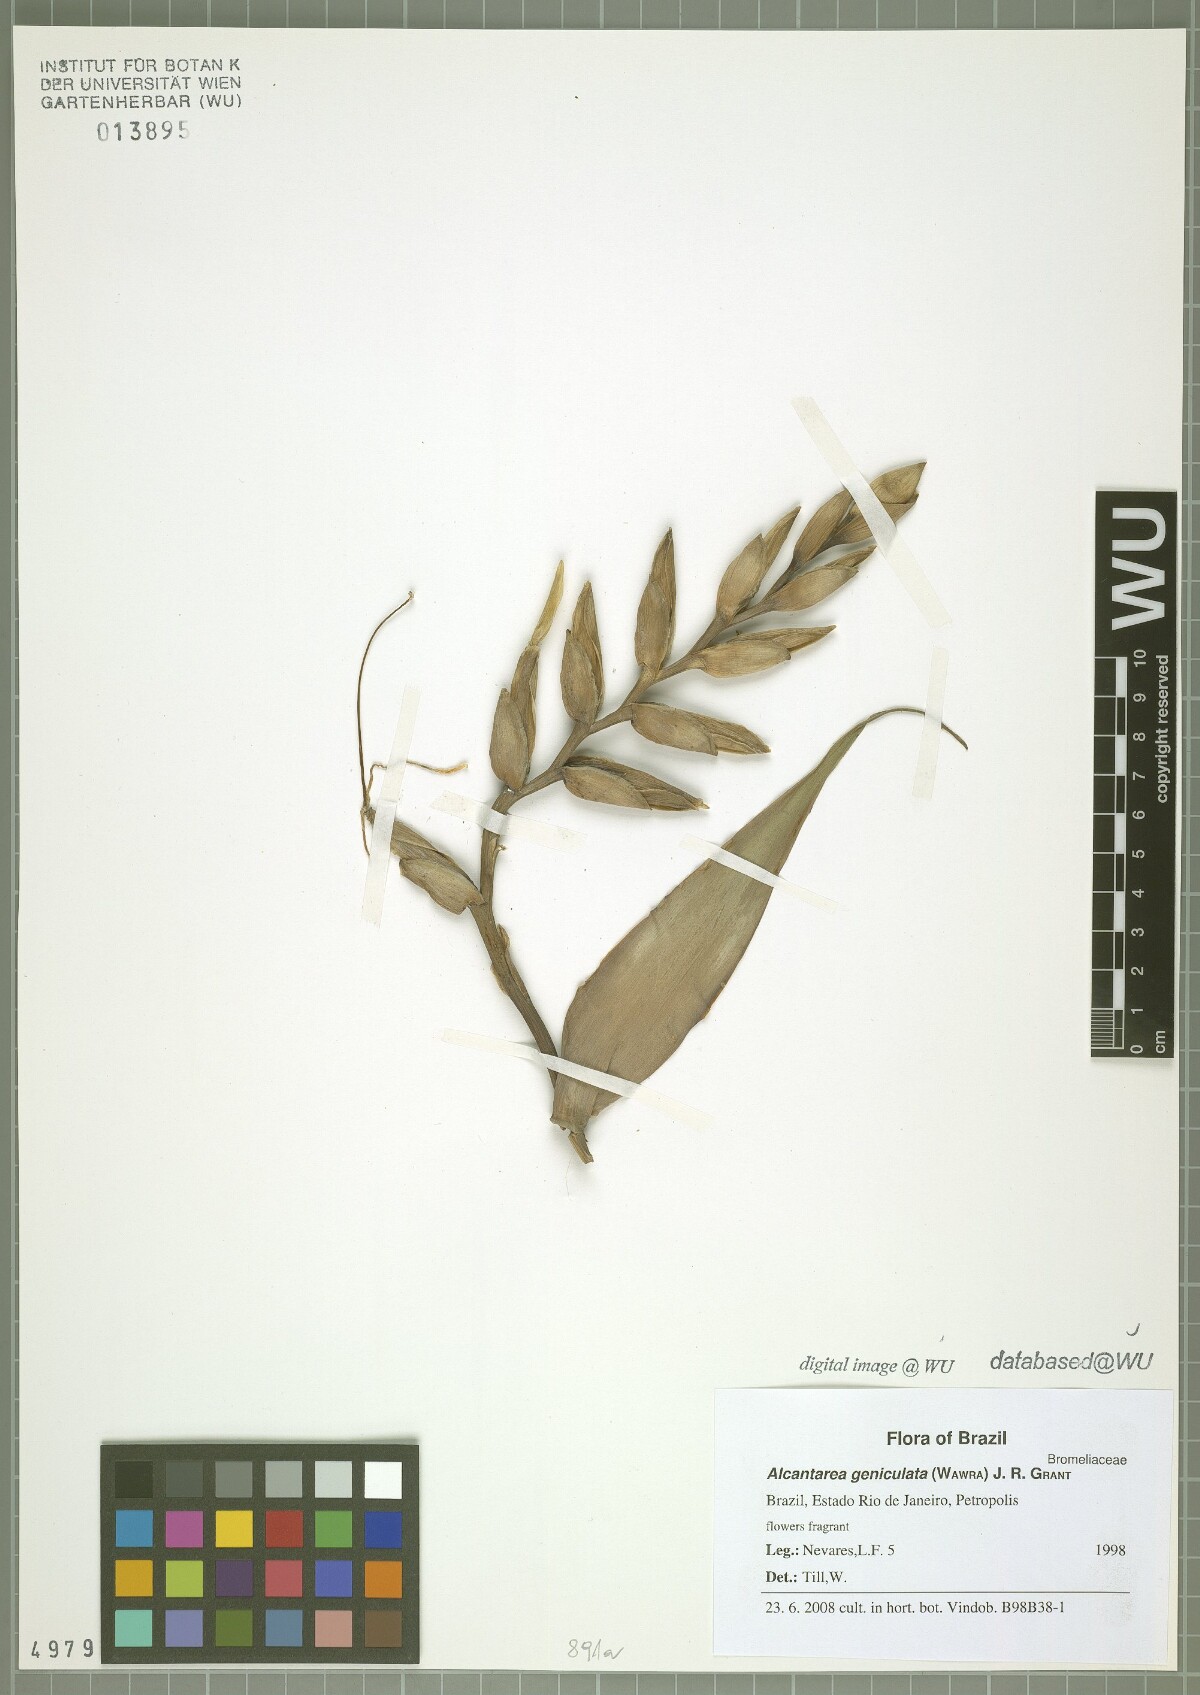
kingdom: Plantae
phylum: Tracheophyta
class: Liliopsida
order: Poales
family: Bromeliaceae
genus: Alcantarea
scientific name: Alcantarea geniculata
